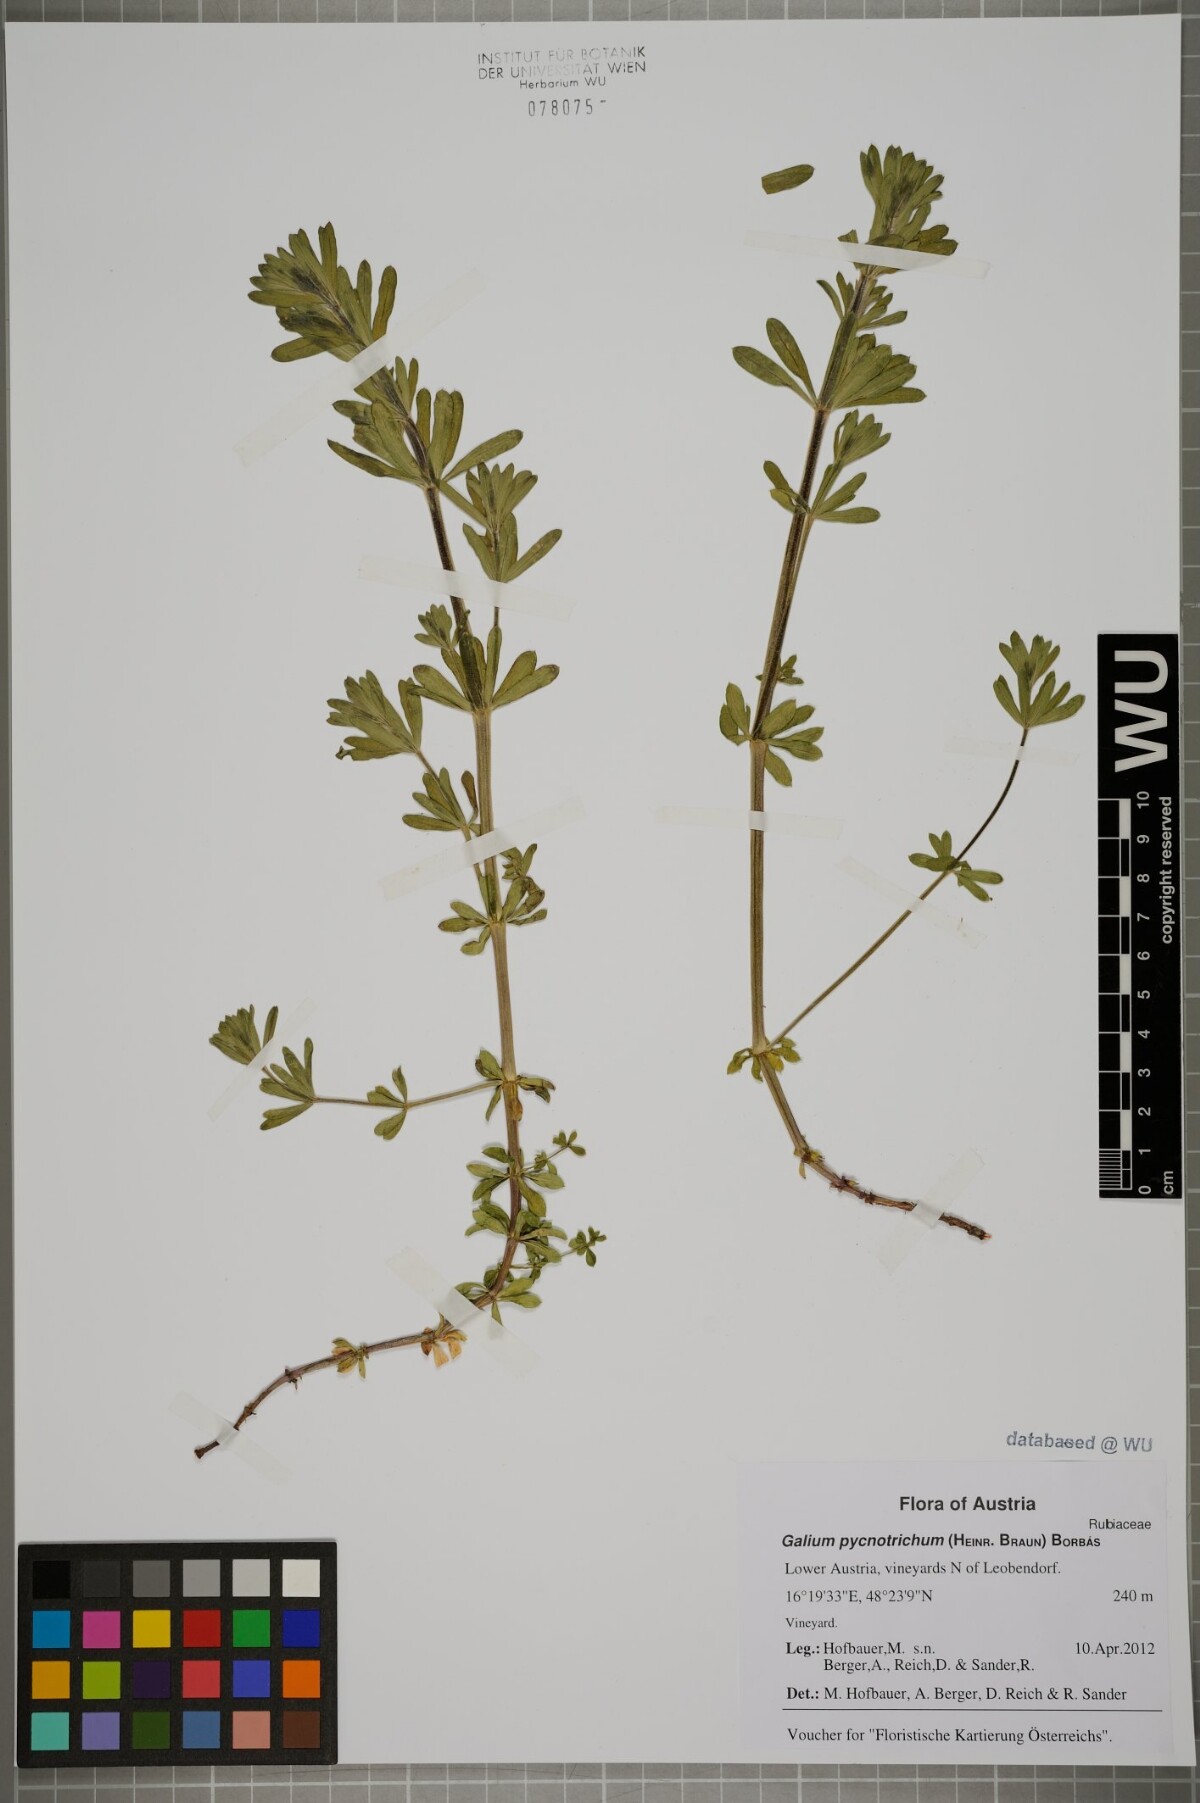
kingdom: Plantae
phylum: Tracheophyta
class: Magnoliopsida
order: Gentianales
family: Rubiaceae
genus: Galium
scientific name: Galium album
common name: White bedstraw
